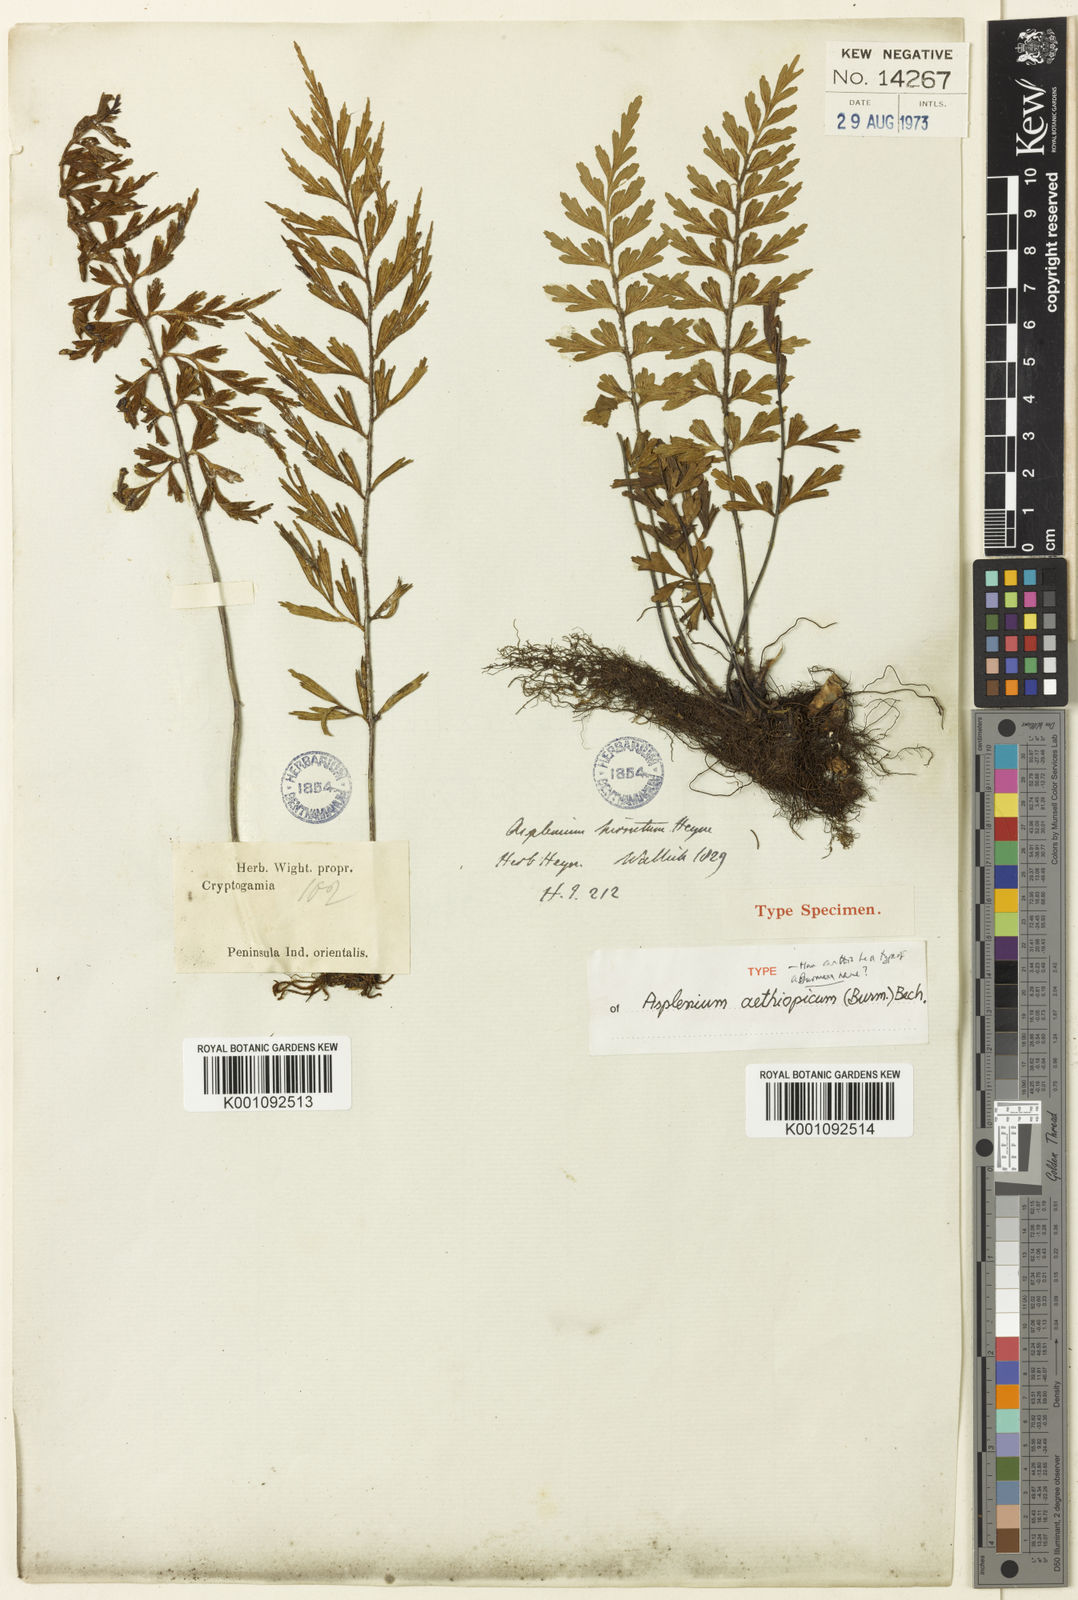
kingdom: Plantae
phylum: Tracheophyta
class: Polypodiopsida
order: Polypodiales
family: Aspleniaceae
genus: Asplenium
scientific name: Asplenium aethiopicum
